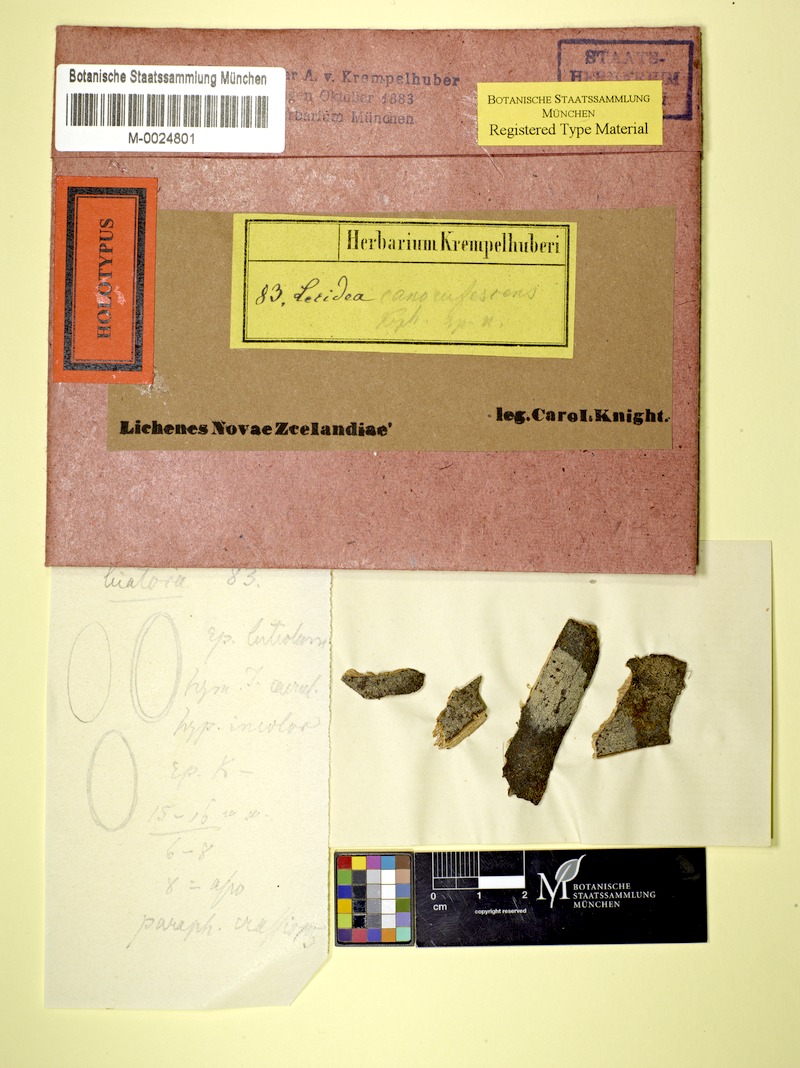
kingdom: Fungi
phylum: Ascomycota
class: Lecanoromycetes
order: Lecanorales
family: Malmideaceae
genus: Australidea
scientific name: Australidea canorufescens
